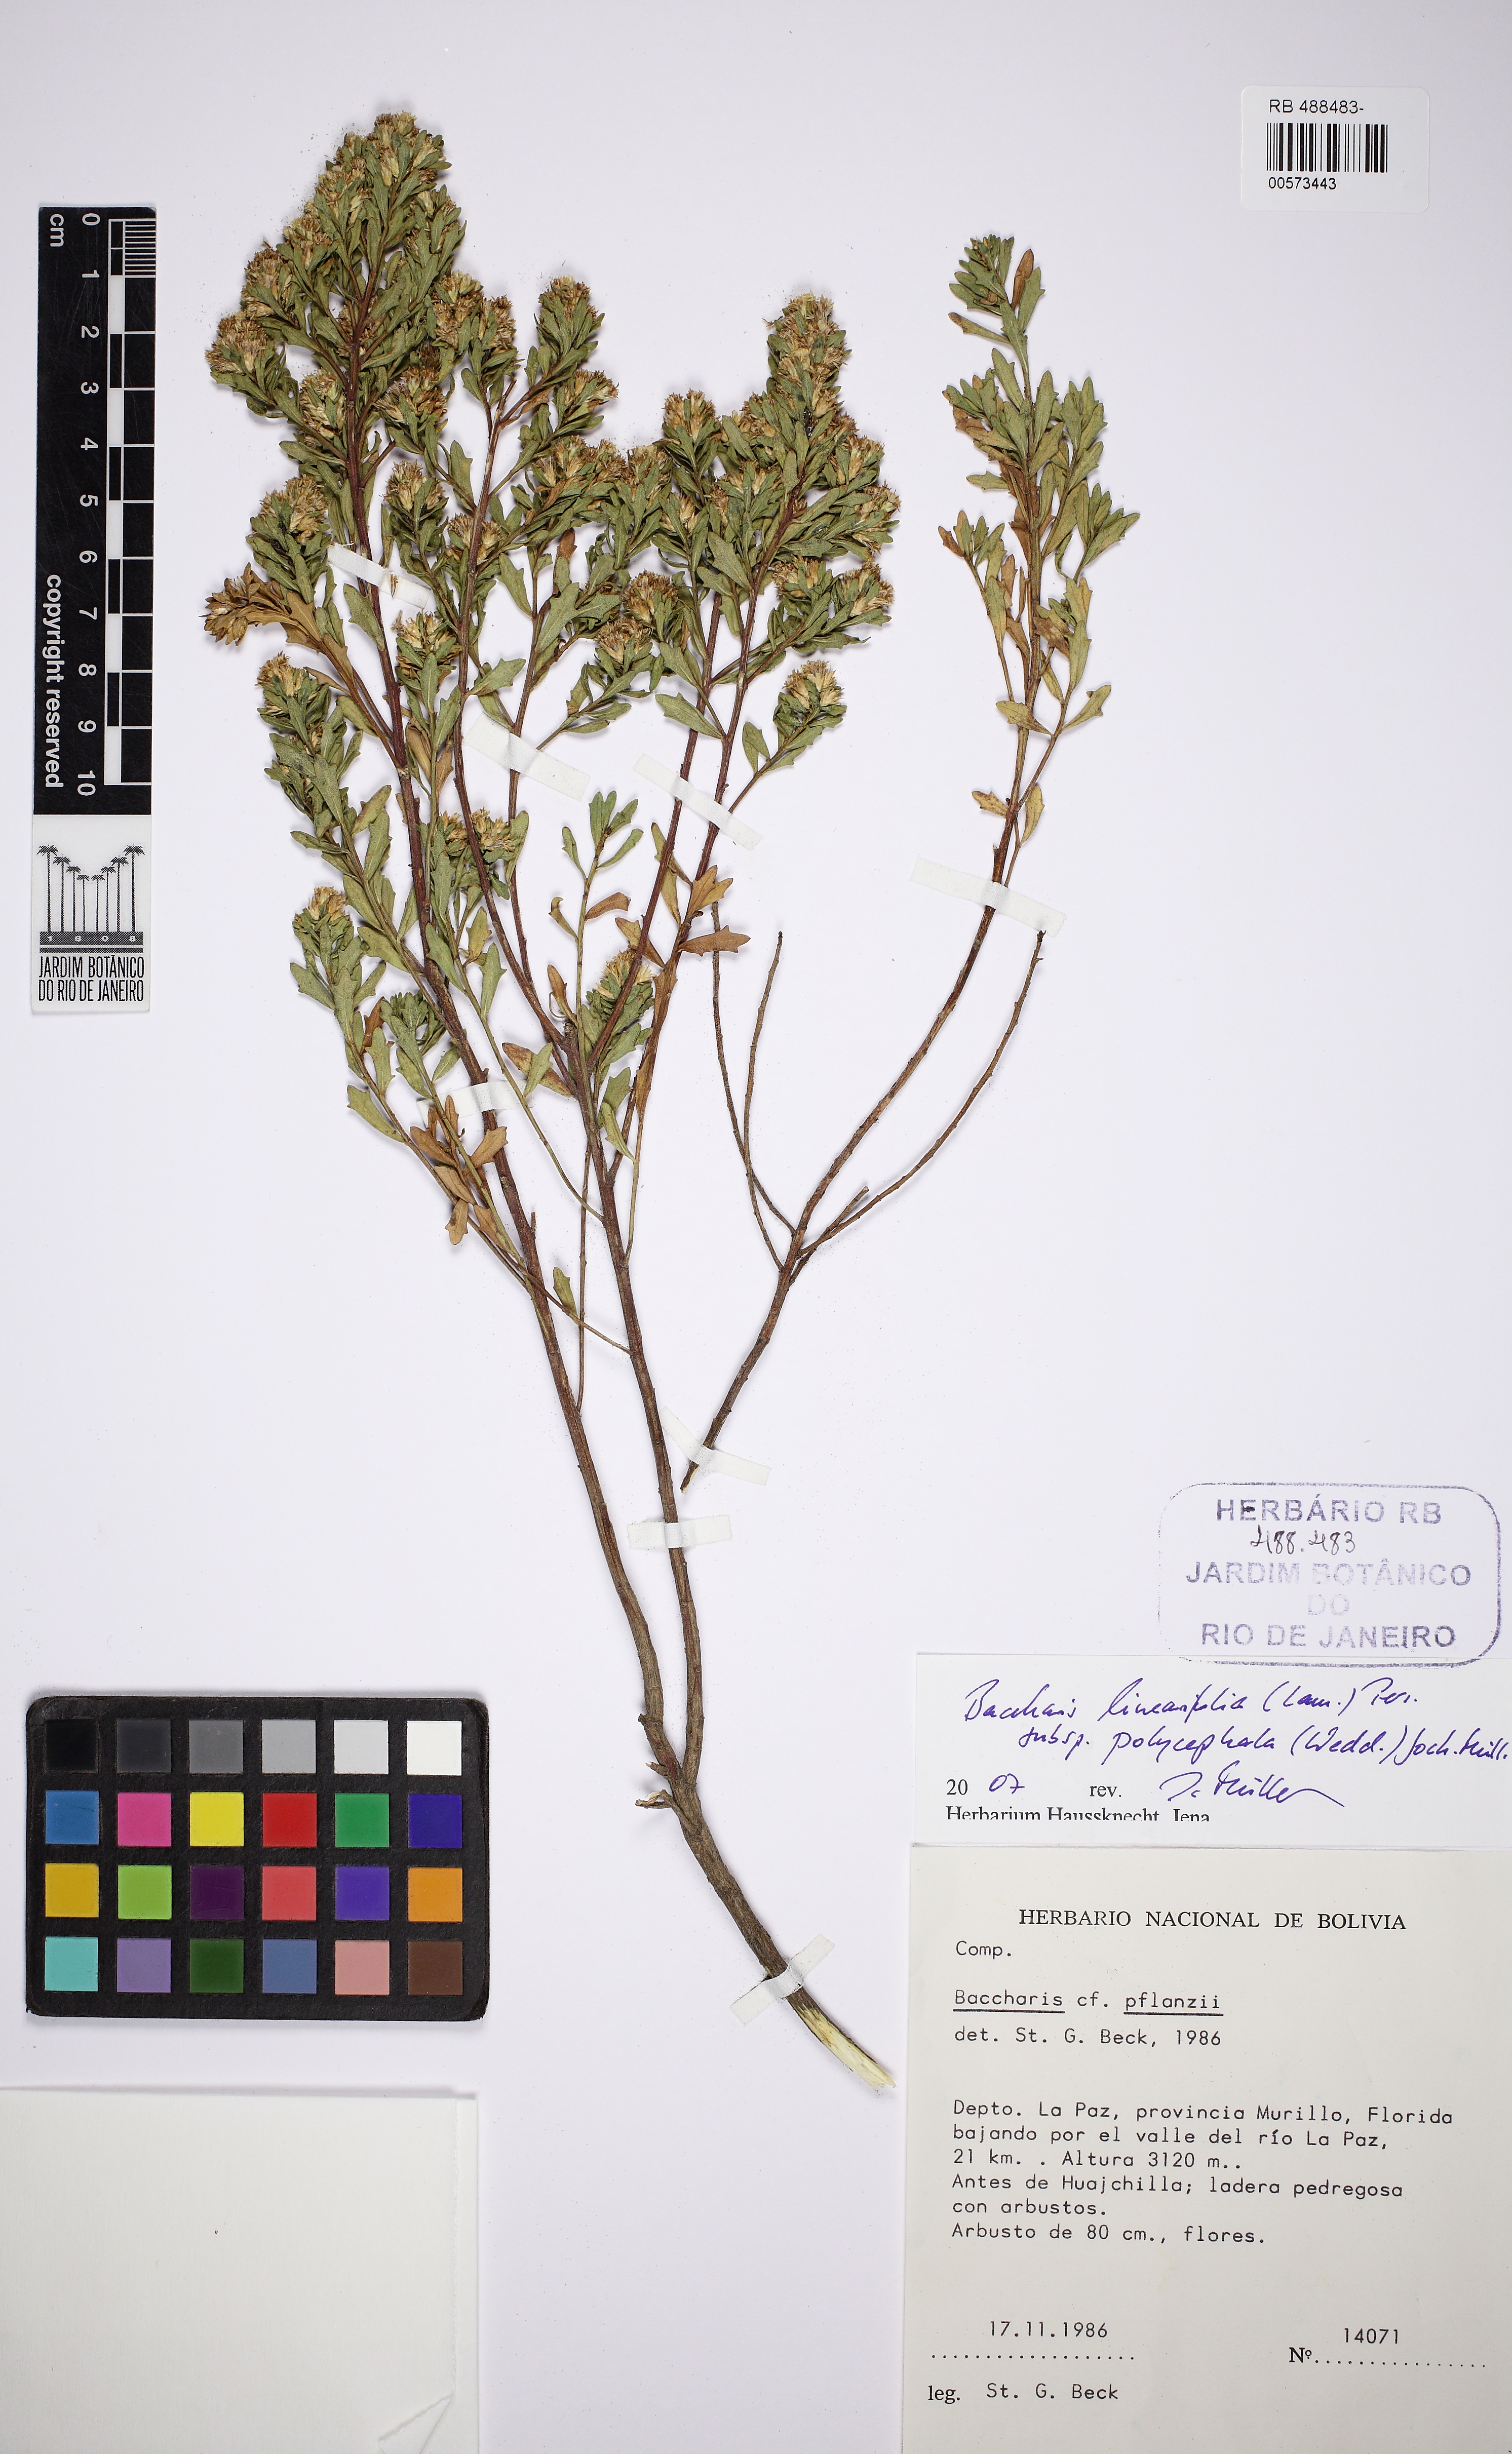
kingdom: Plantae
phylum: Tracheophyta
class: Magnoliopsida
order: Asterales
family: Asteraceae
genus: Baccharis
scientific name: Baccharis linearifolia
